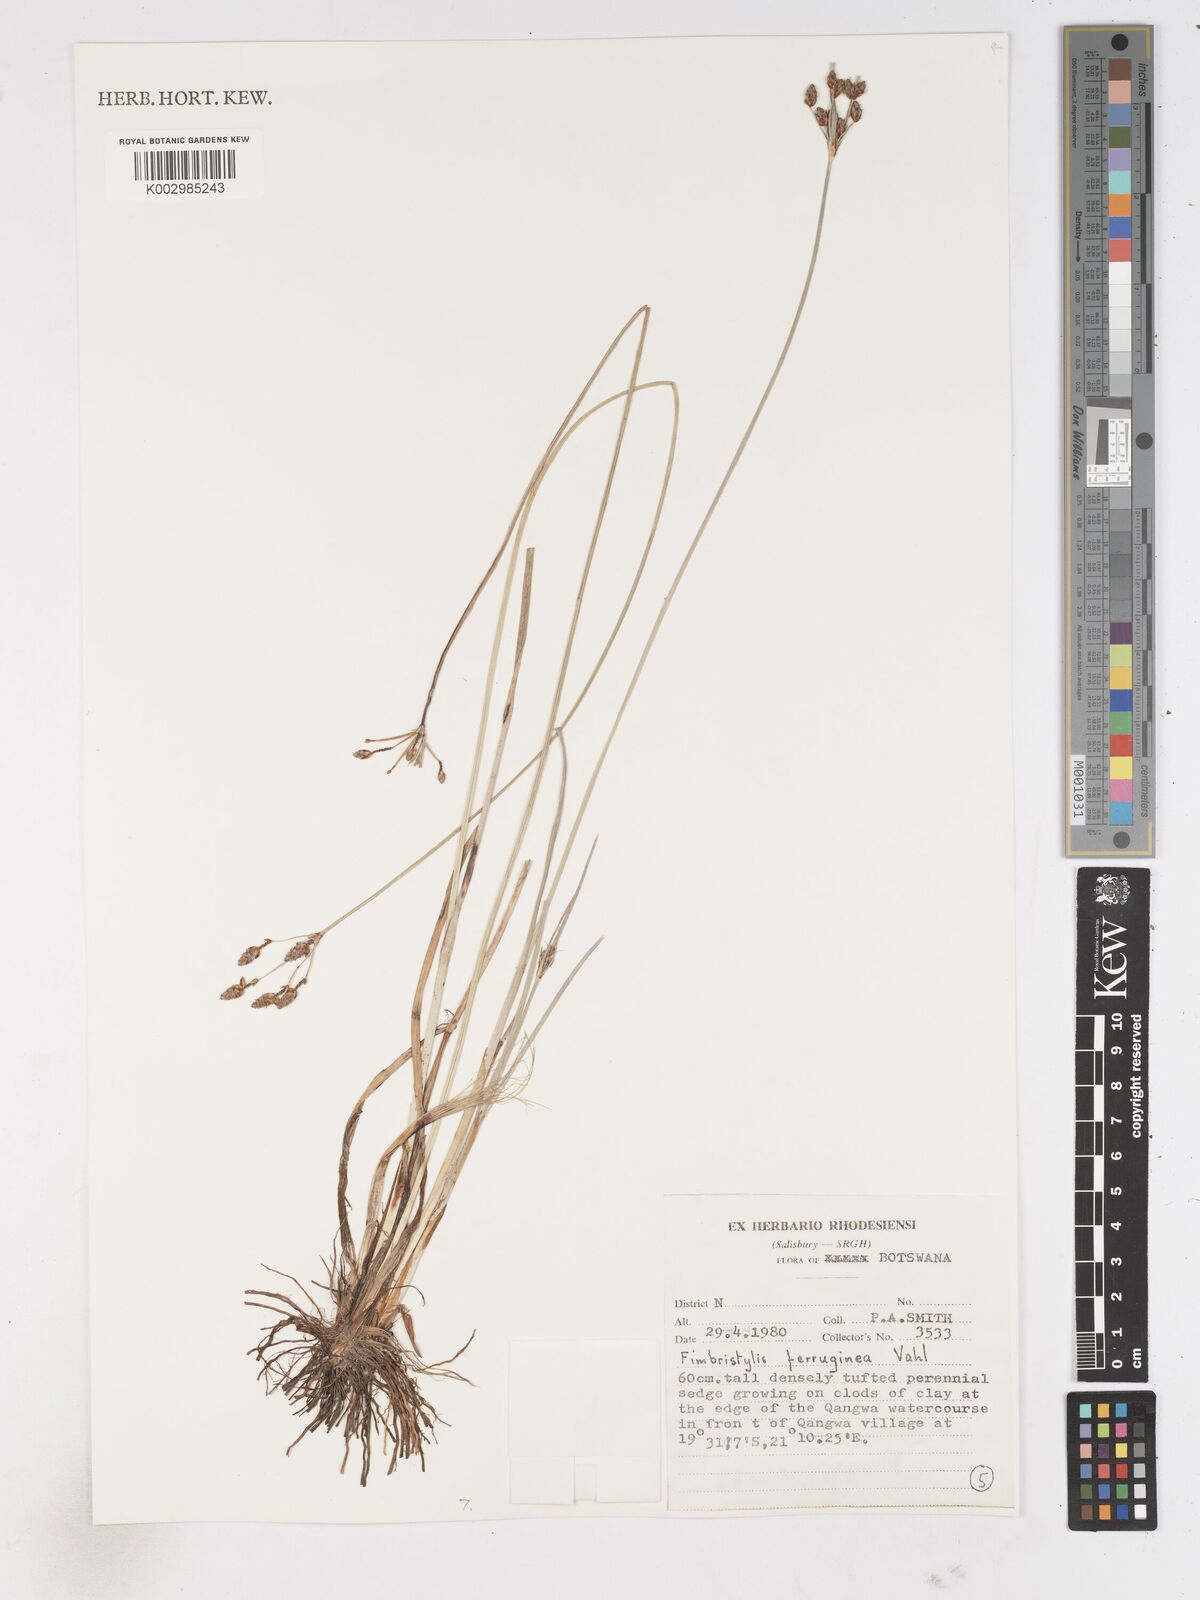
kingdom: Plantae
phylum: Tracheophyta
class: Liliopsida
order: Poales
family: Cyperaceae
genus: Fimbristylis
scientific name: Fimbristylis ferruginea
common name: West indian fimbry
